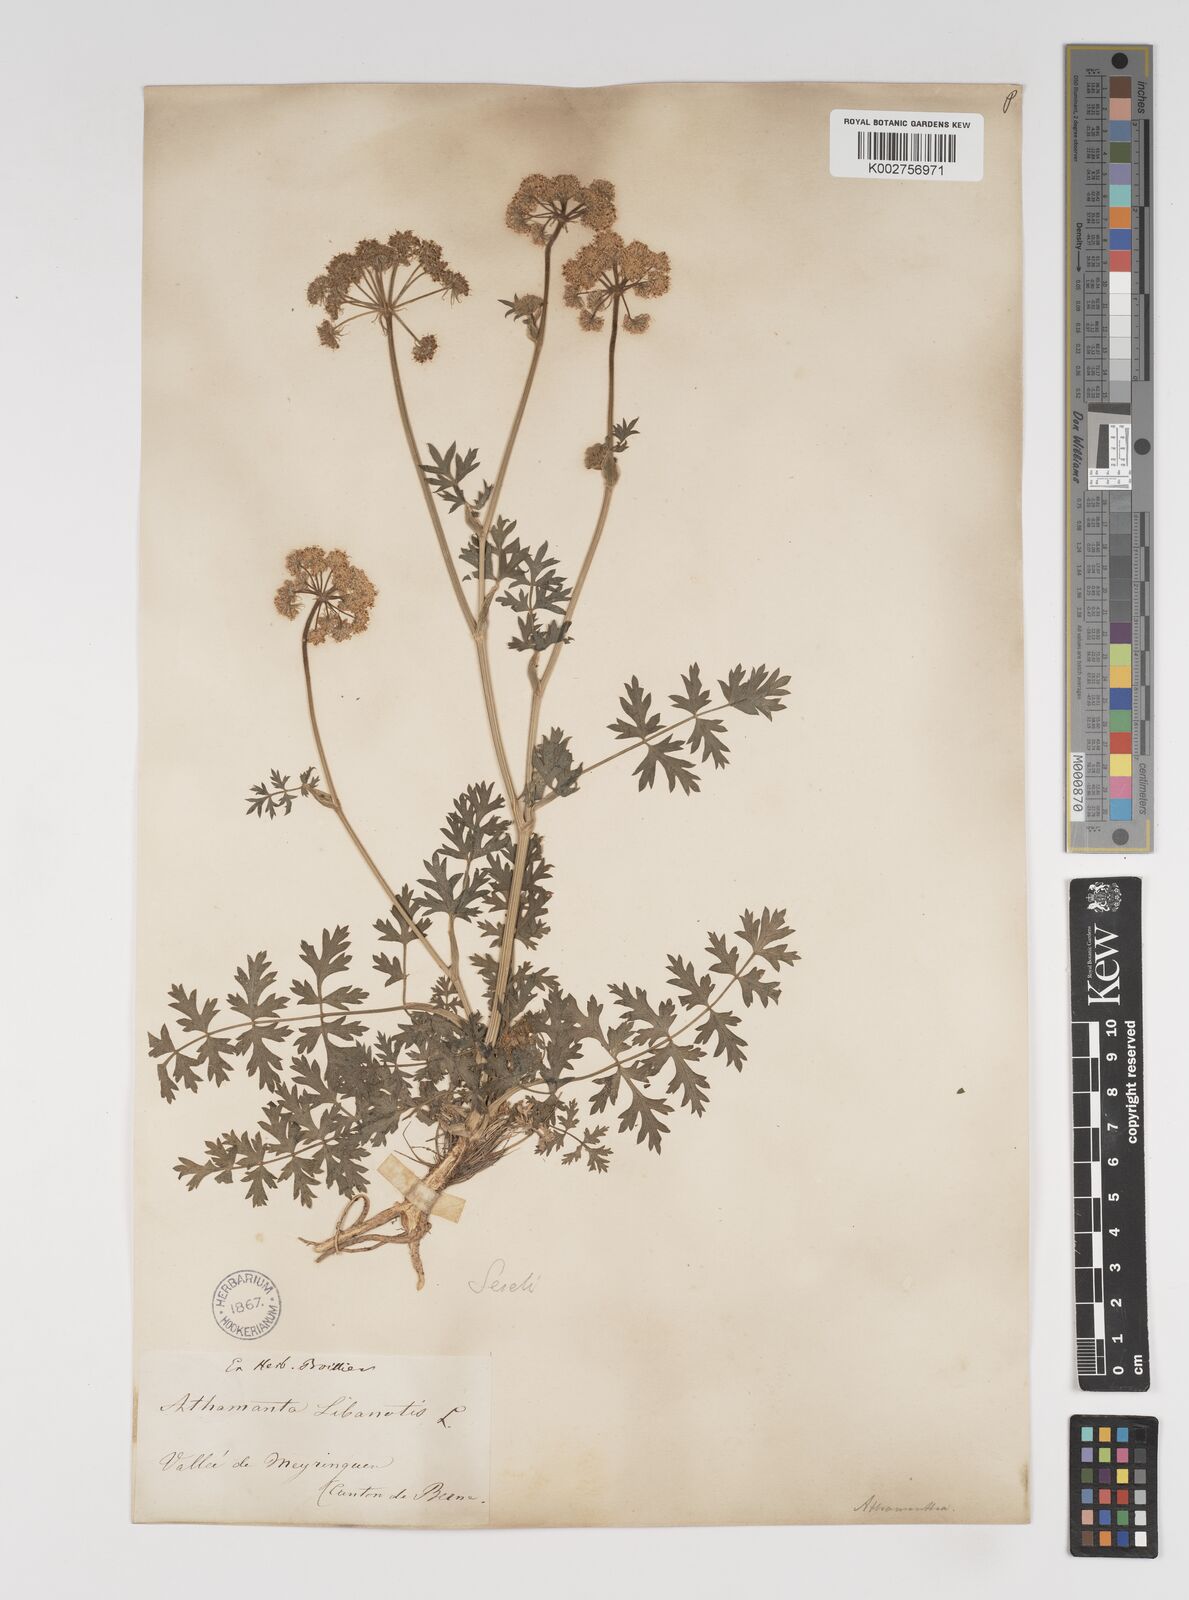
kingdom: Plantae
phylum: Tracheophyta
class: Magnoliopsida
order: Apiales
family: Apiaceae
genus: Seseli
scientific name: Seseli libanotis
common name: Mooncarrot
